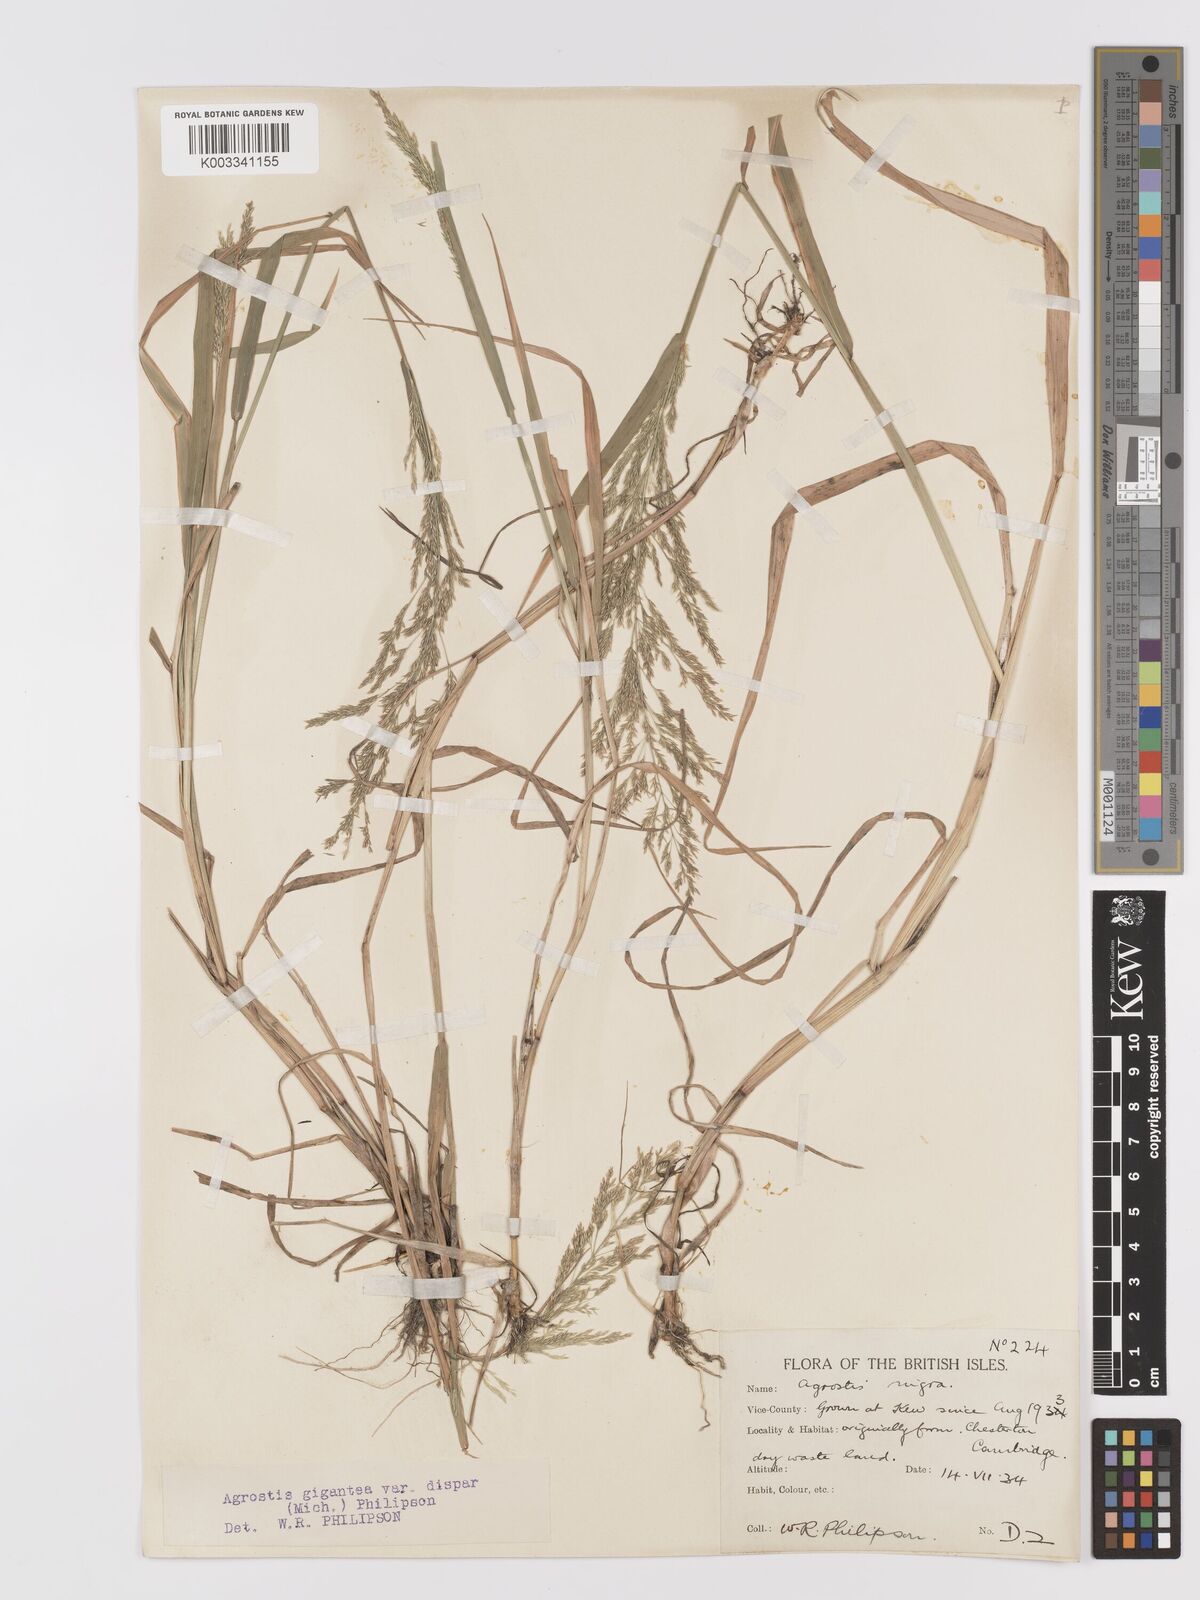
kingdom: Plantae
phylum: Tracheophyta
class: Liliopsida
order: Poales
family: Poaceae
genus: Agrostis
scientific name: Agrostis gigantea
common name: Black bent
